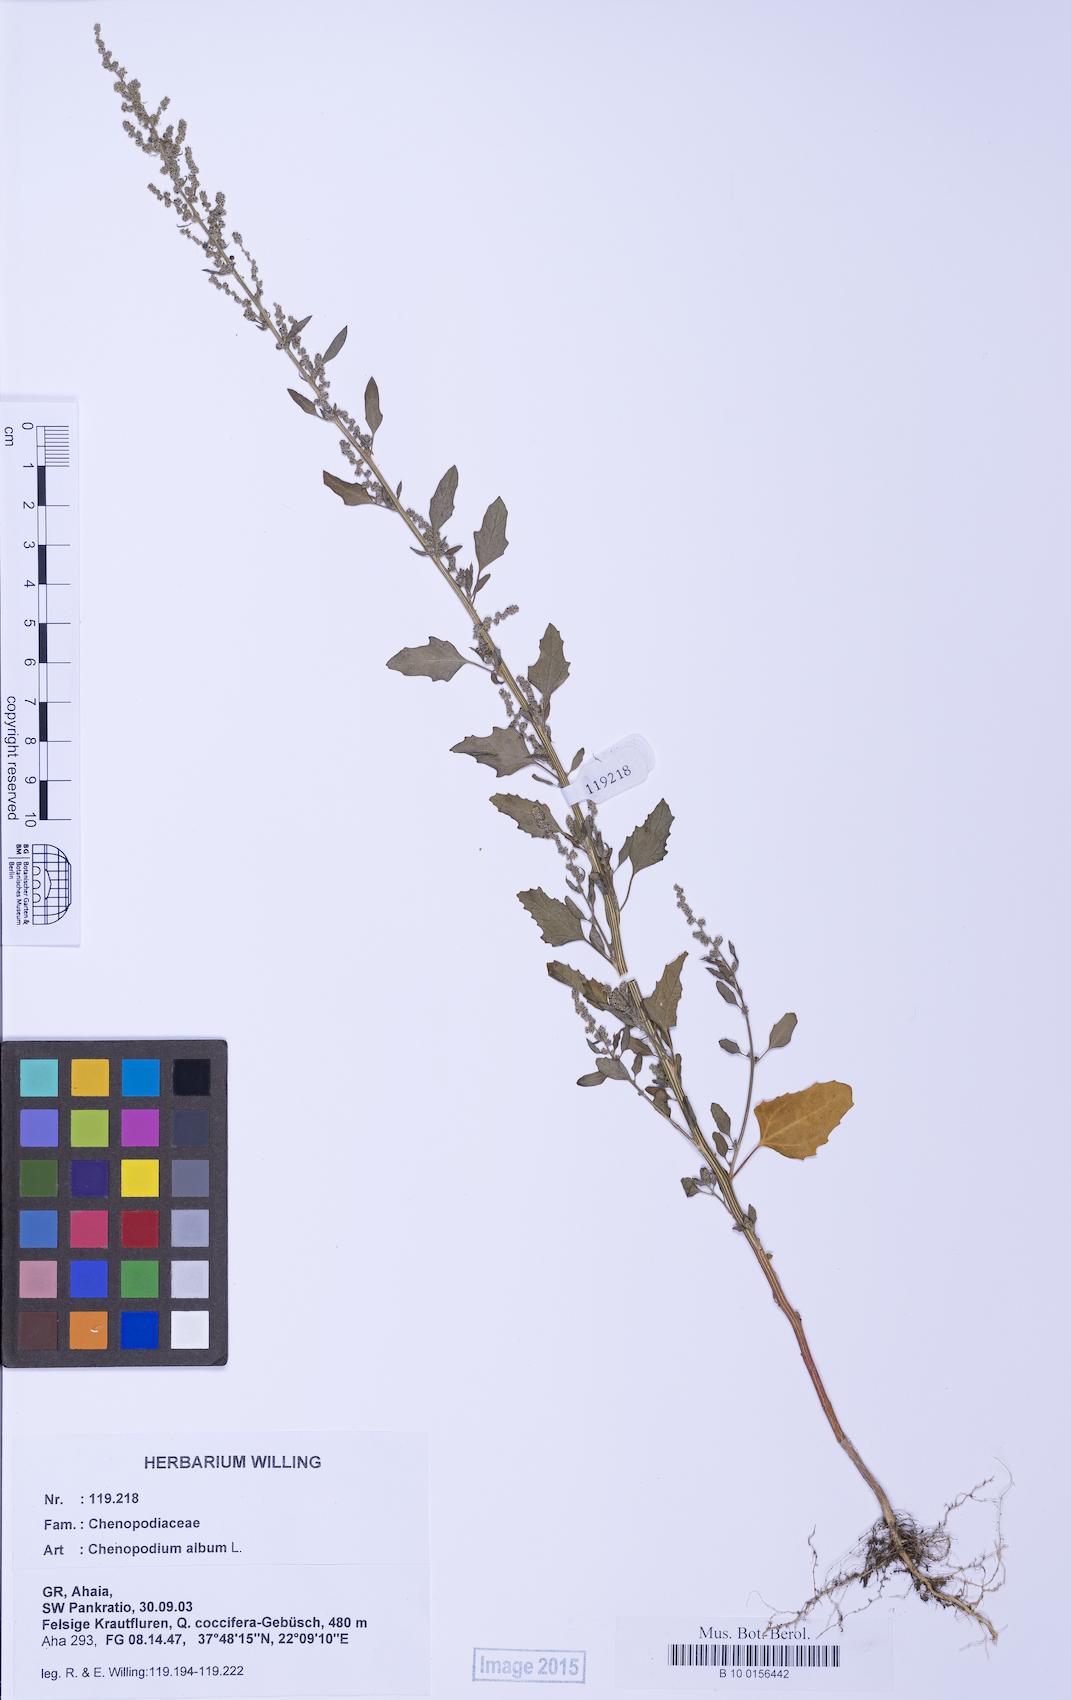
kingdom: Plantae
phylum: Tracheophyta
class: Magnoliopsida
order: Caryophyllales
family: Amaranthaceae
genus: Chenopodium
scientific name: Chenopodium album
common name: Fat-hen
